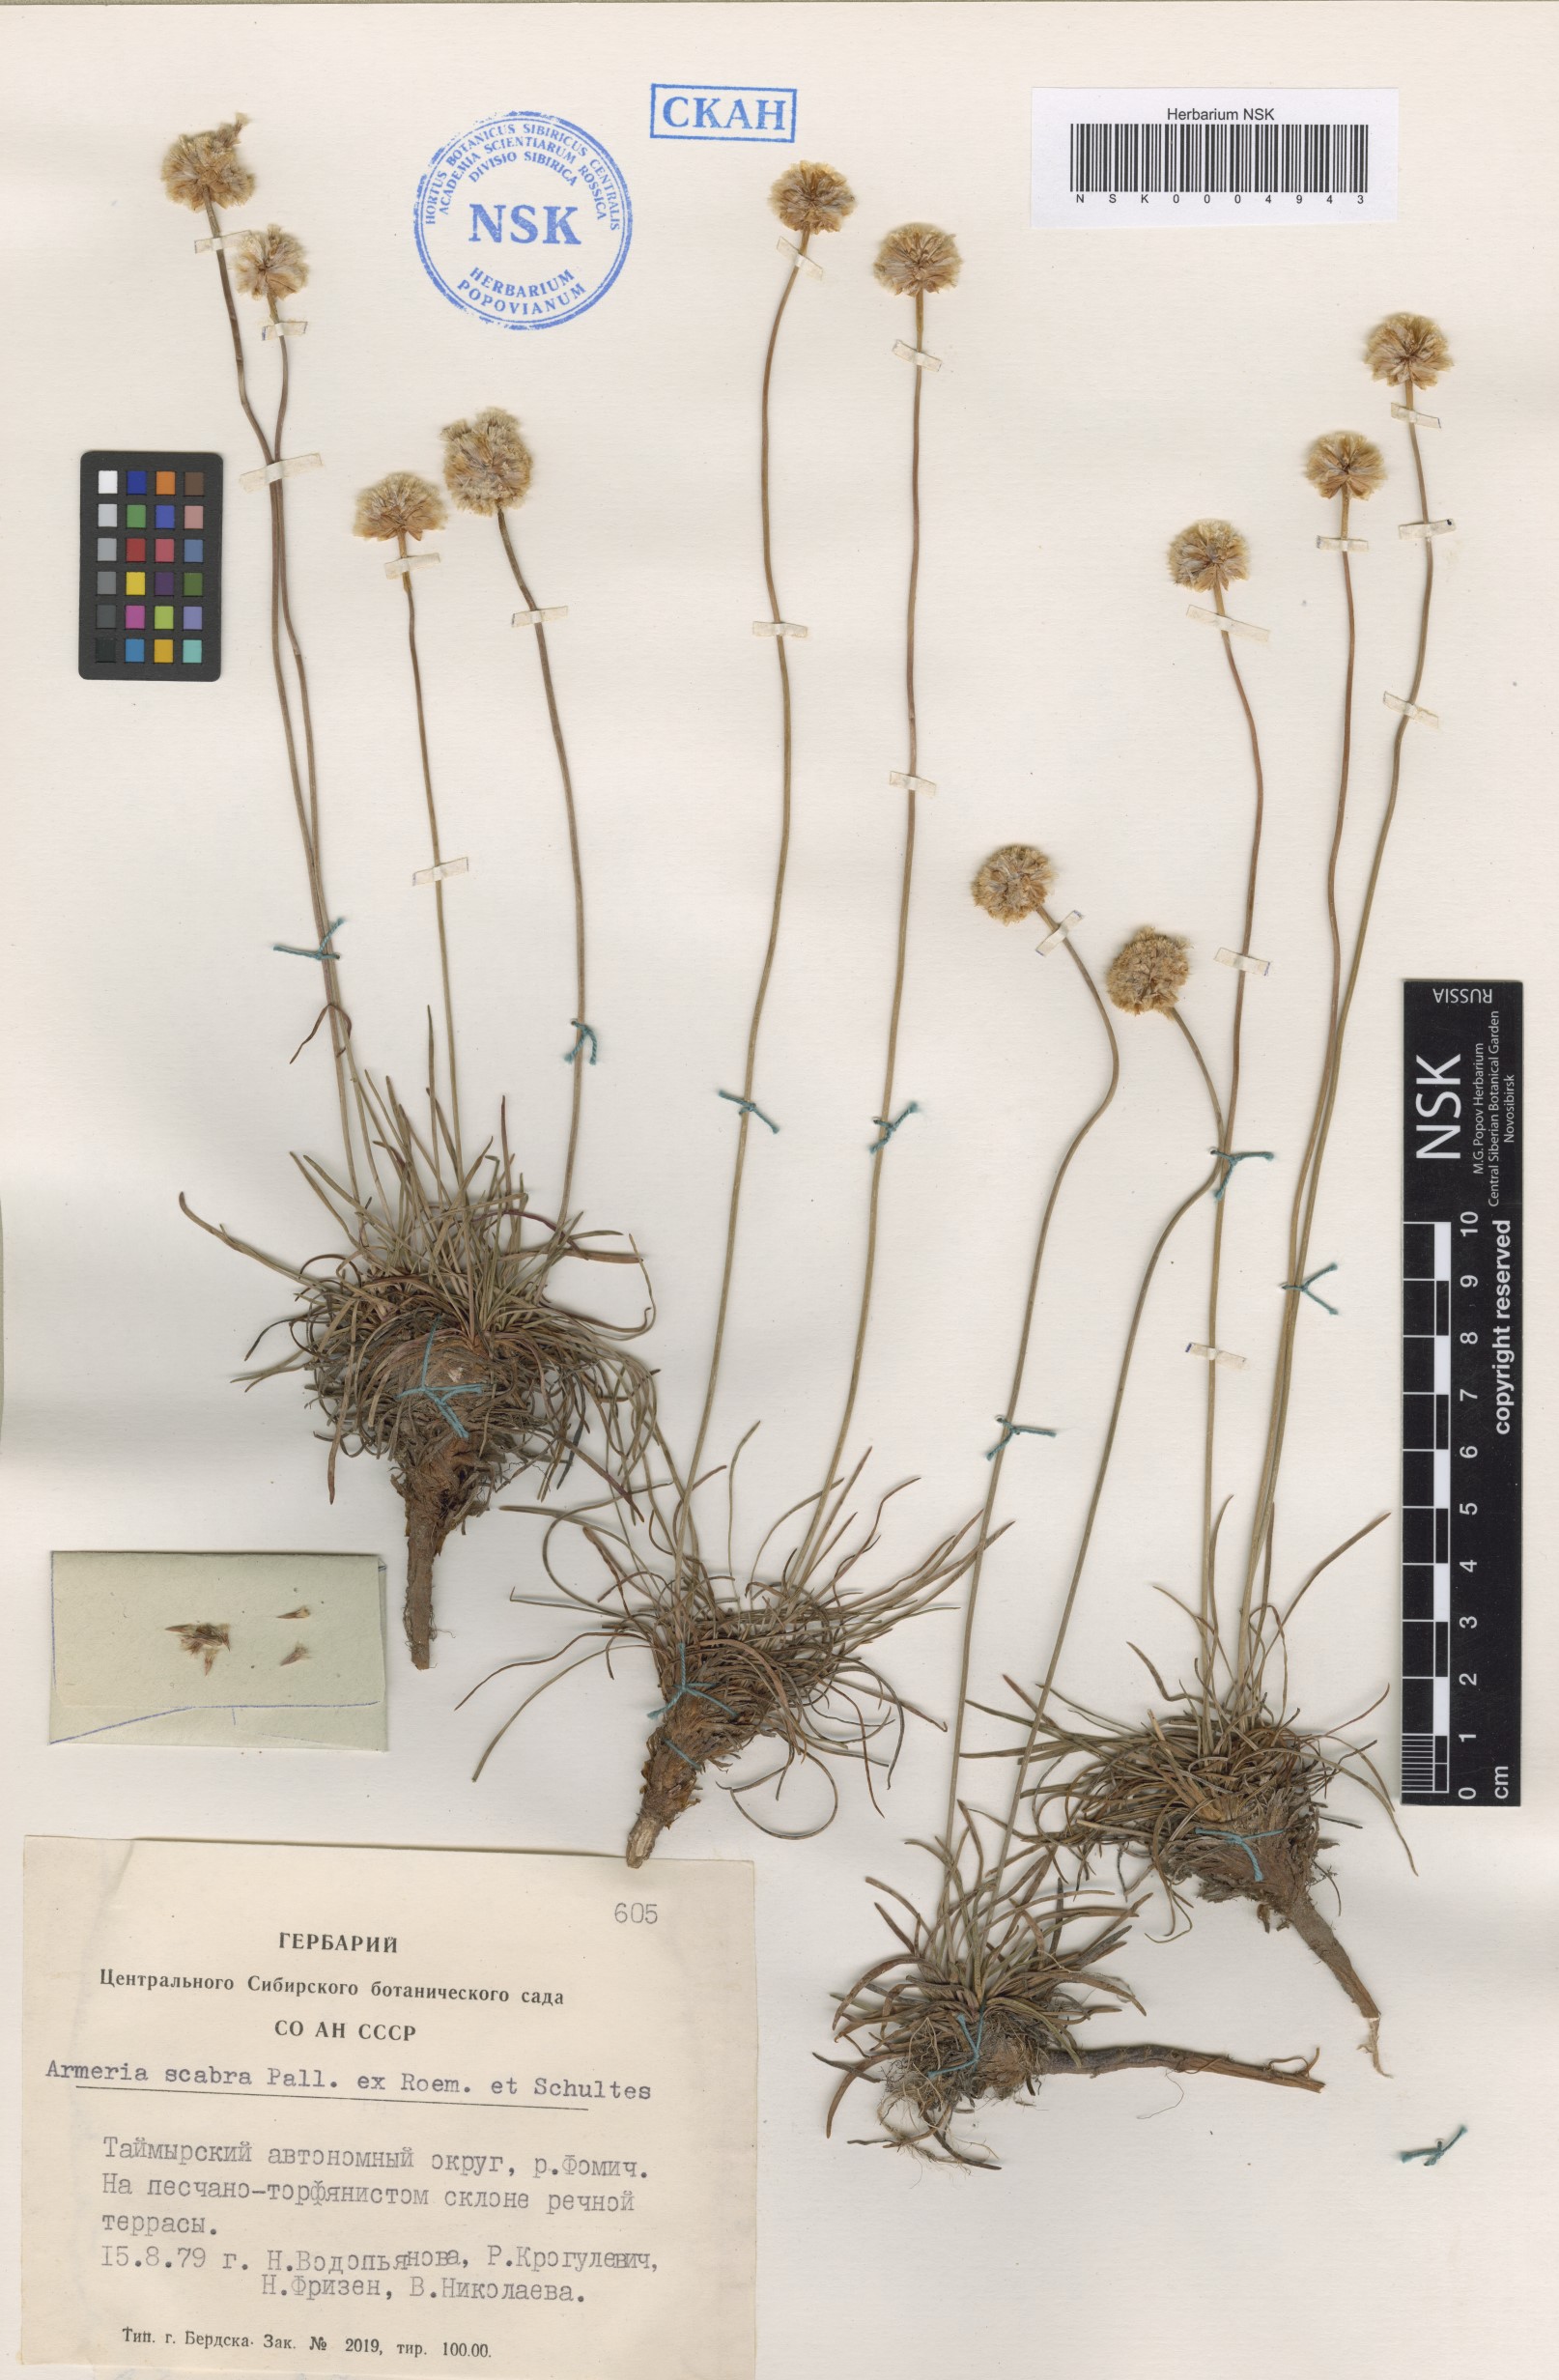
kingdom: Plantae
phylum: Tracheophyta
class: Magnoliopsida
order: Caryophyllales
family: Plumbaginaceae
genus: Armeria
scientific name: Armeria maritima
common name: Thrift
